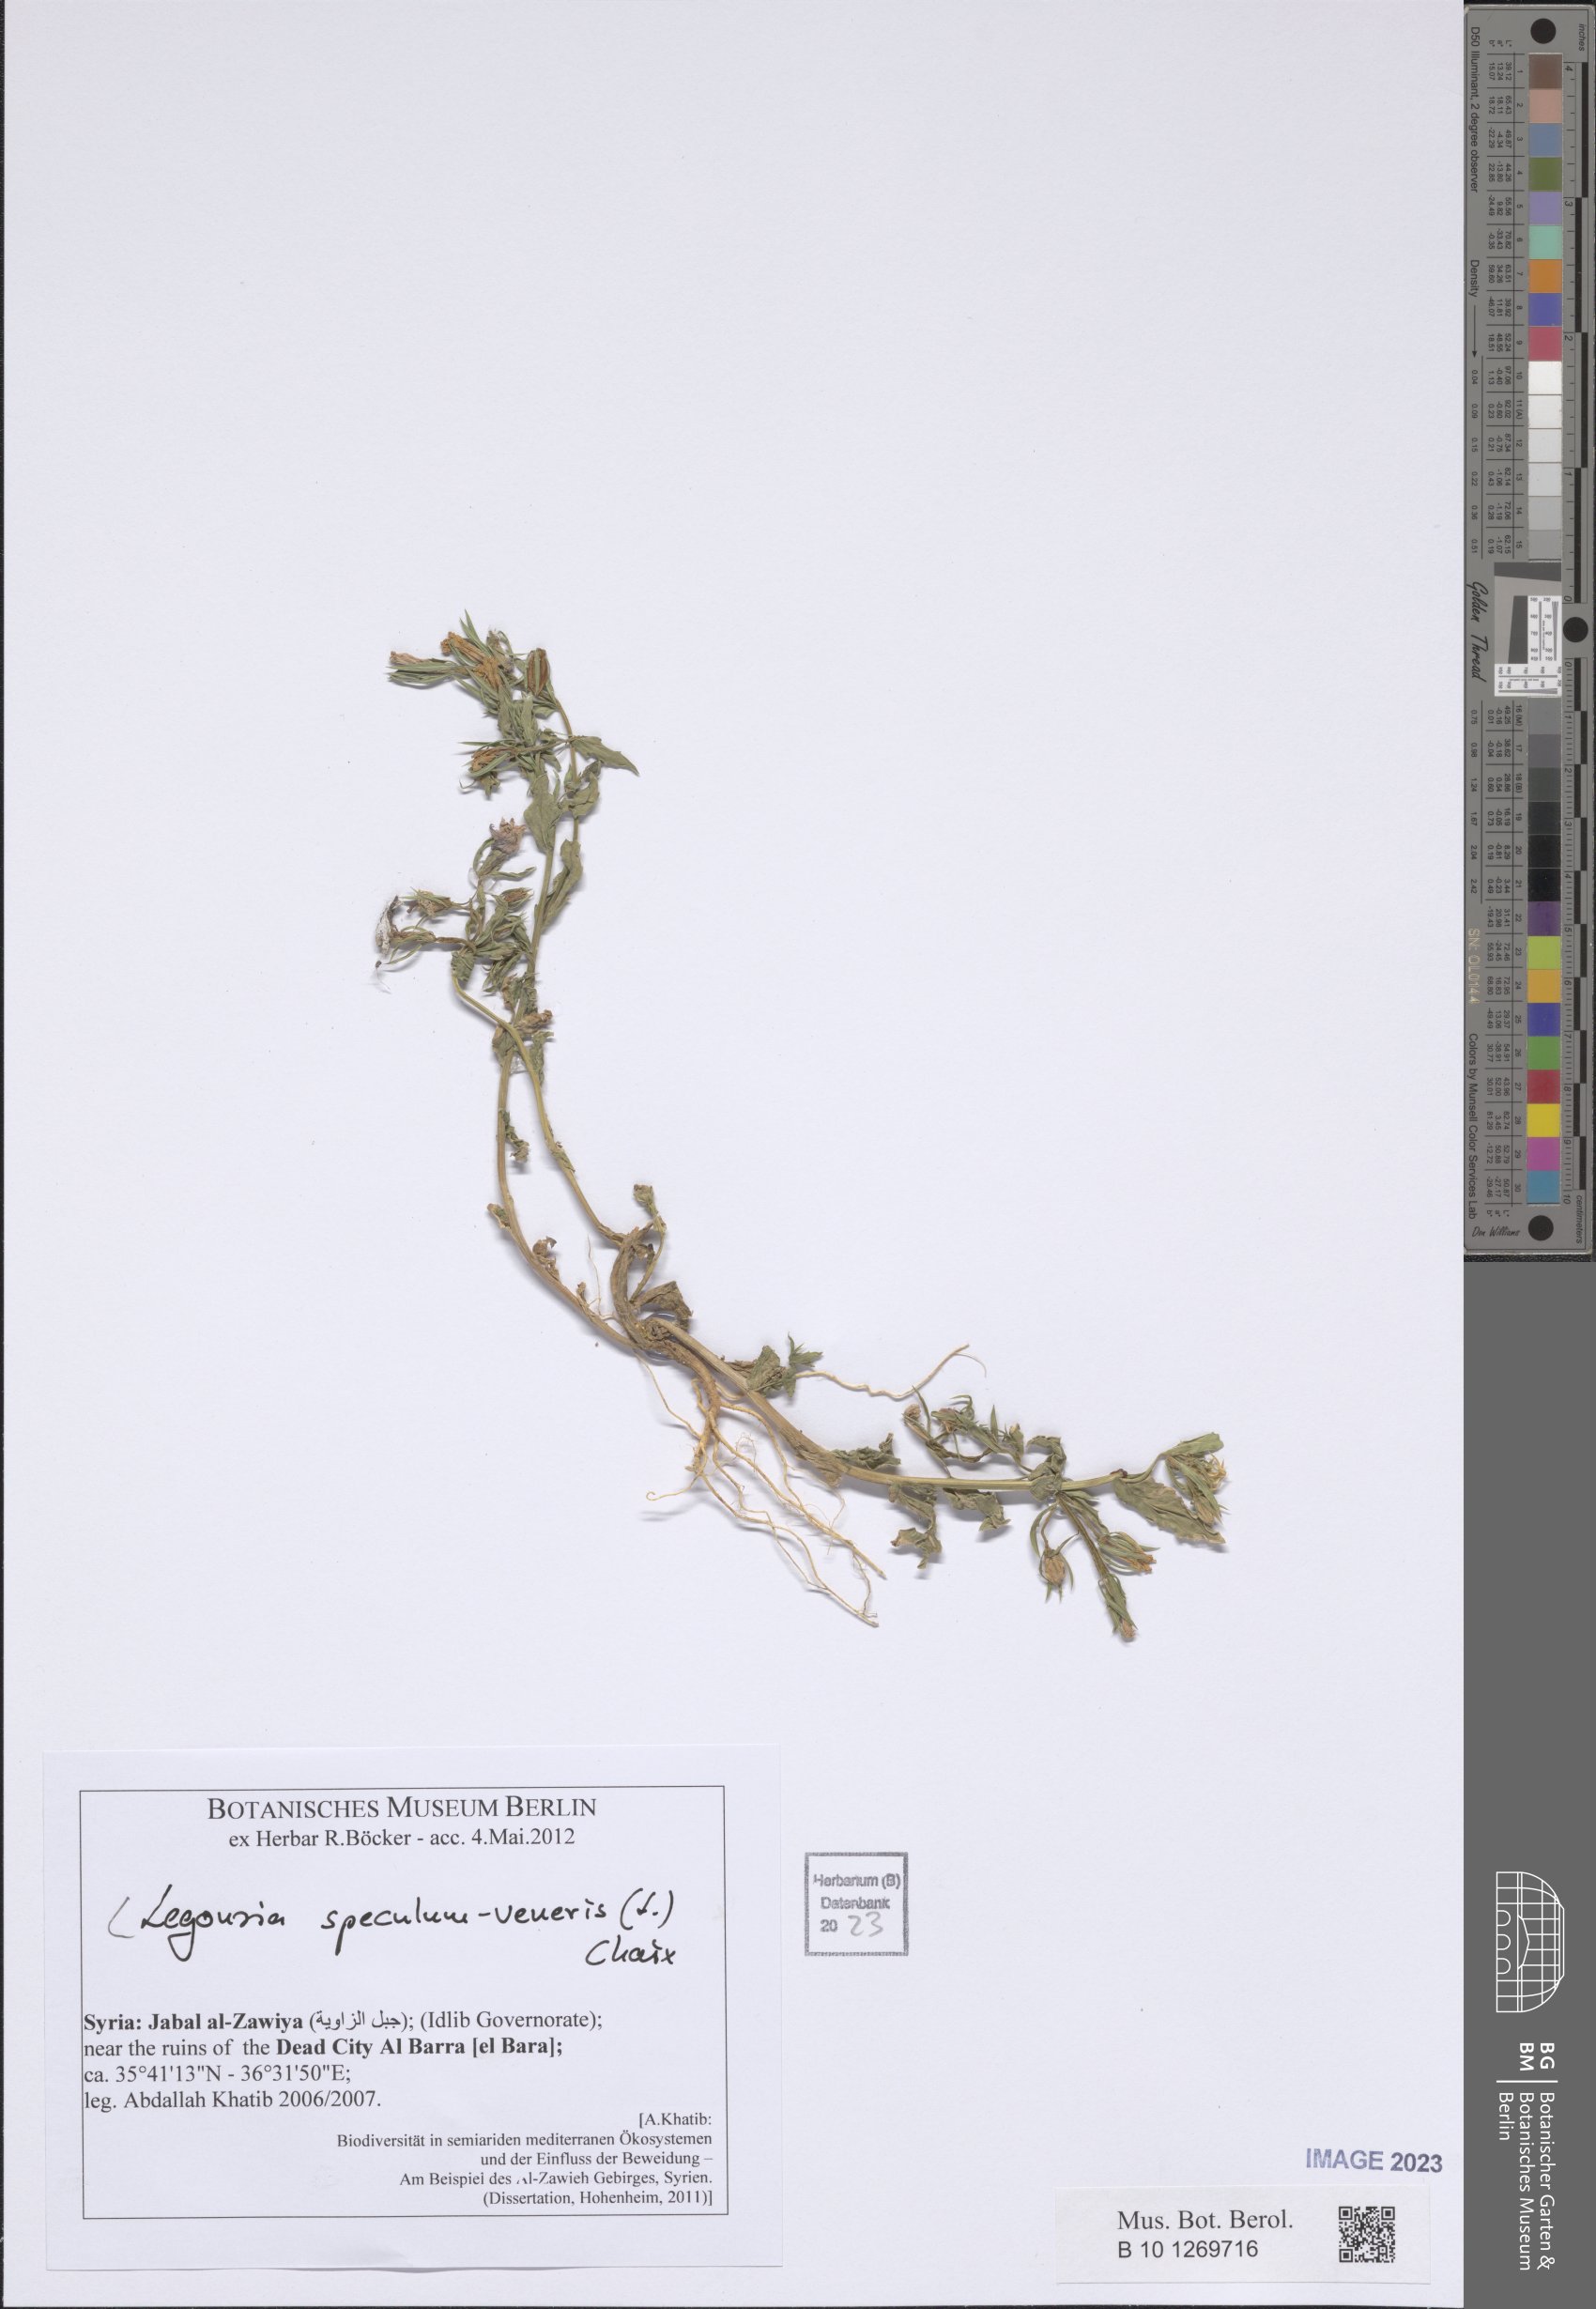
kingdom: Plantae
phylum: Tracheophyta
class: Magnoliopsida
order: Asterales
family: Campanulaceae
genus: Legousia
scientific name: Legousia speculum-veneris
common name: Large venus's-looking-glass
